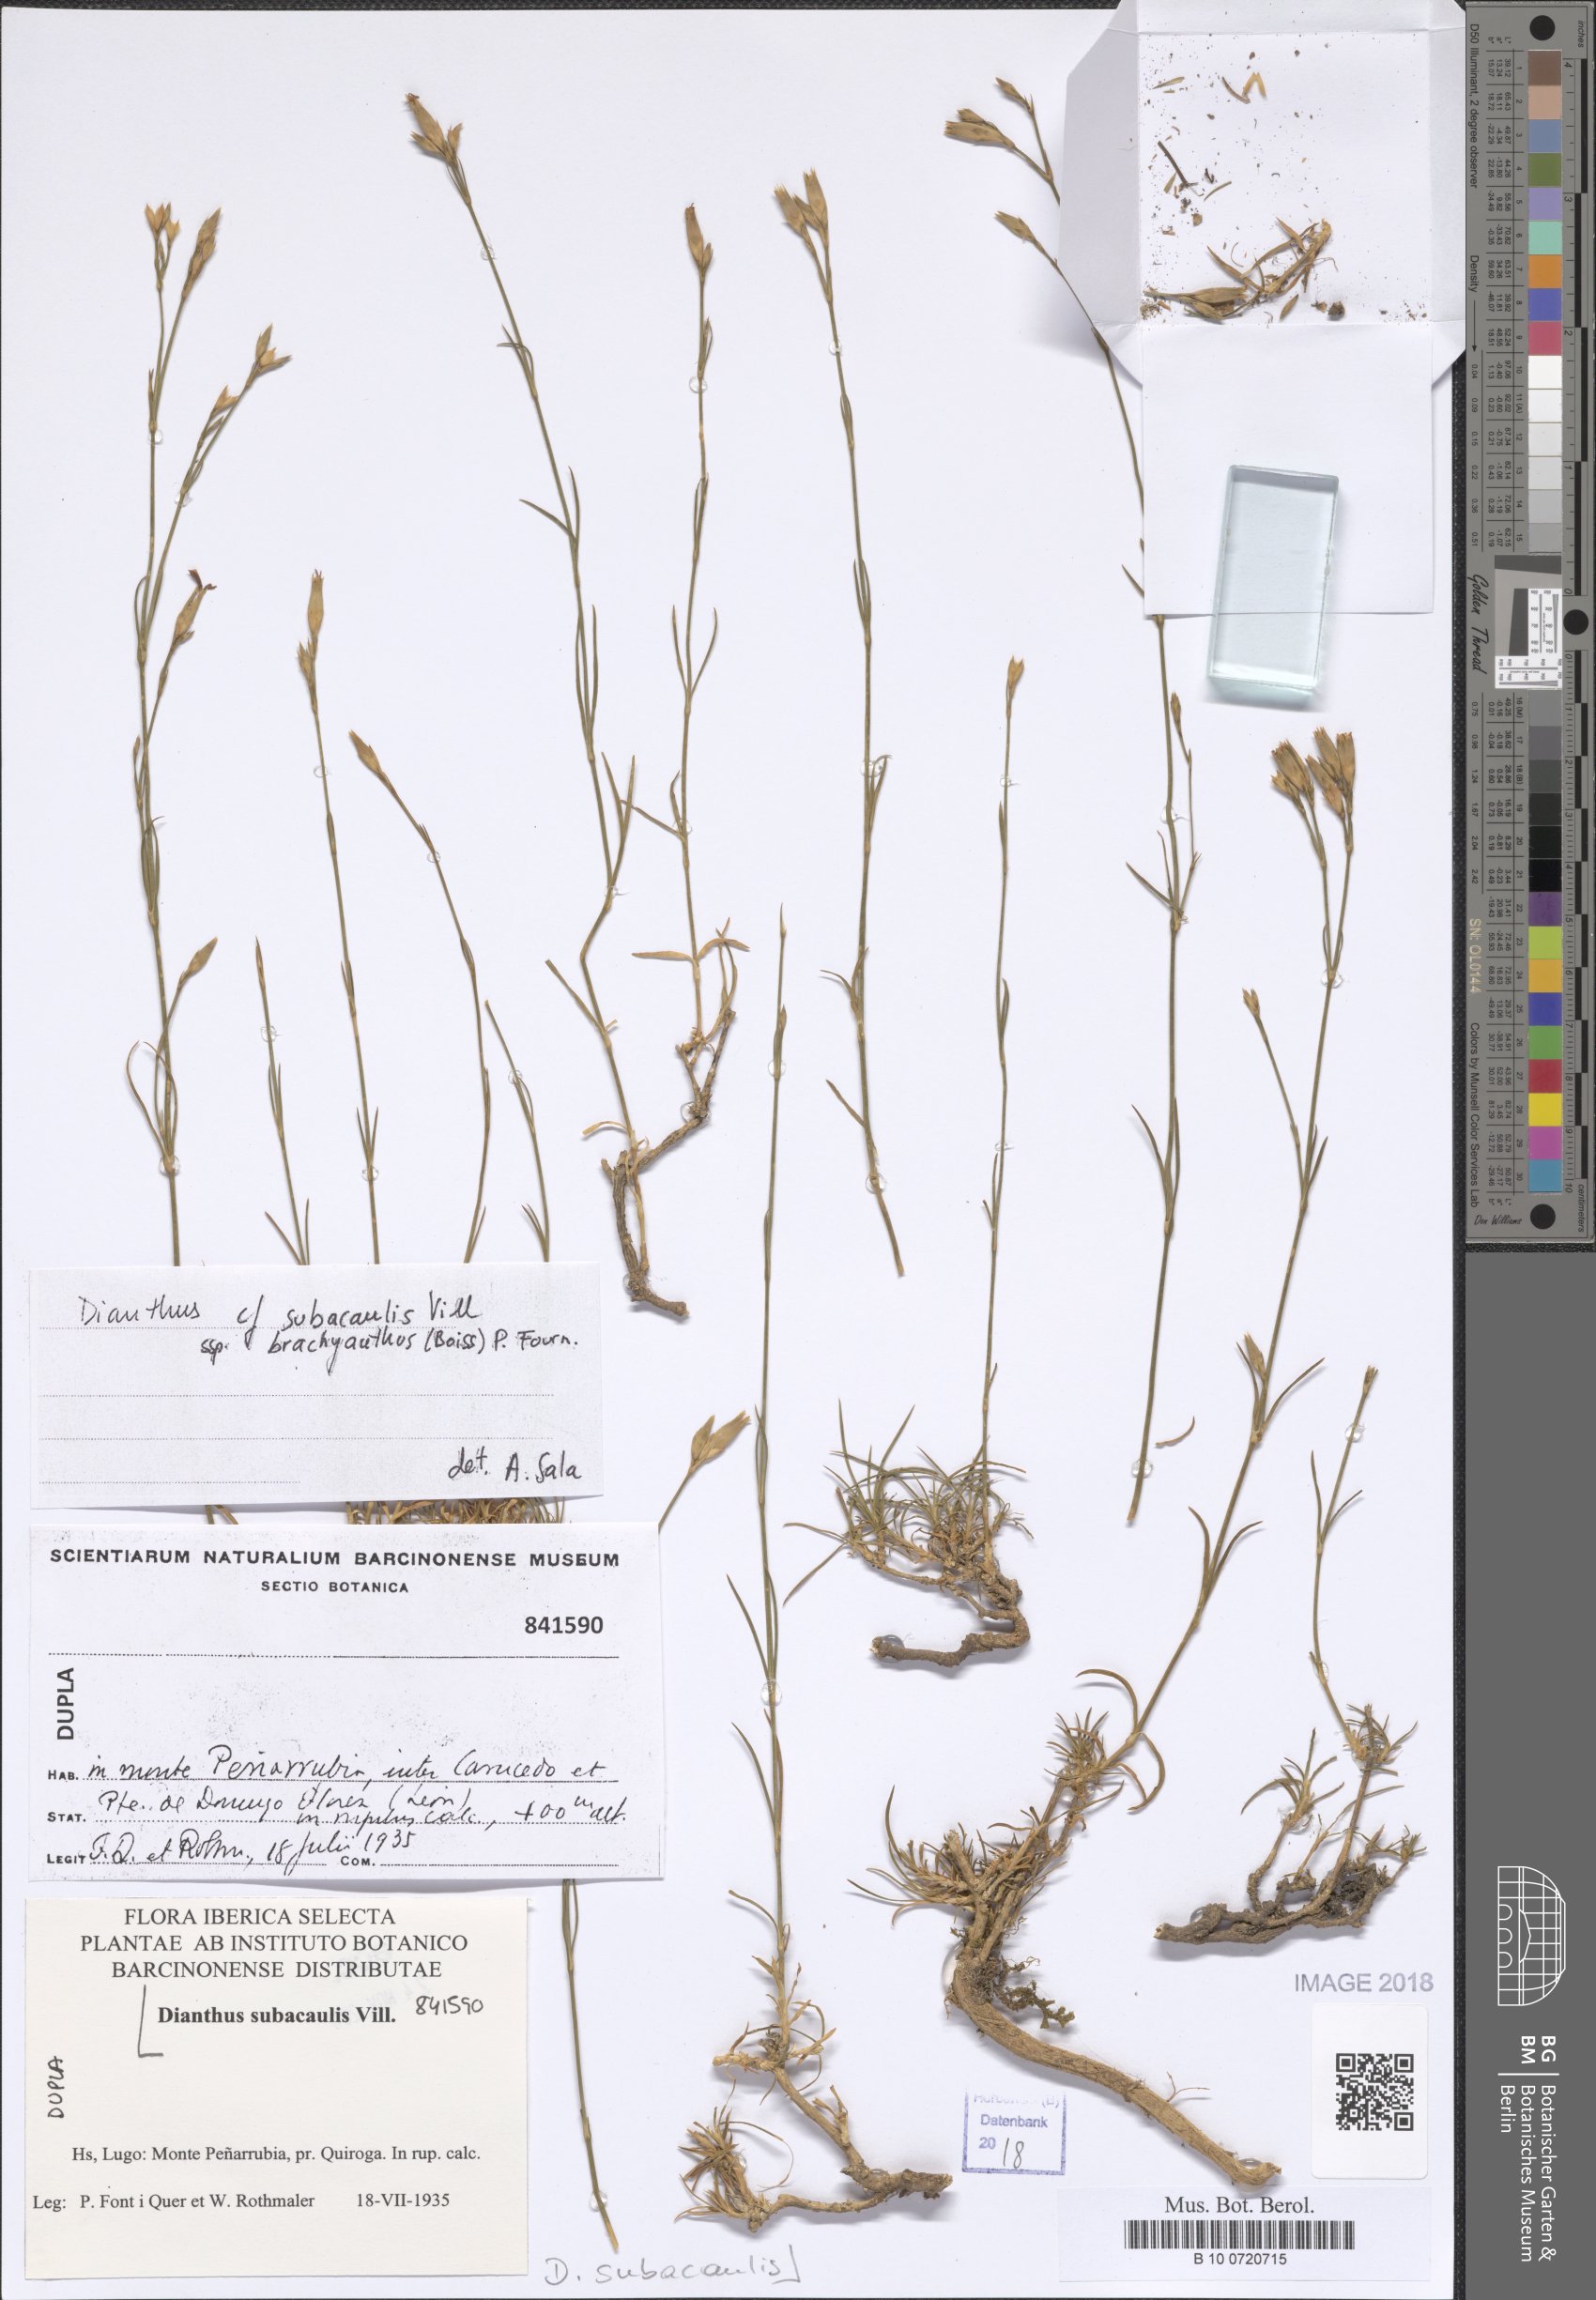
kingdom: Plantae
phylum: Tracheophyta
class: Magnoliopsida
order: Caryophyllales
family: Caryophyllaceae
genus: Dianthus
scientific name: Dianthus subacaulis
